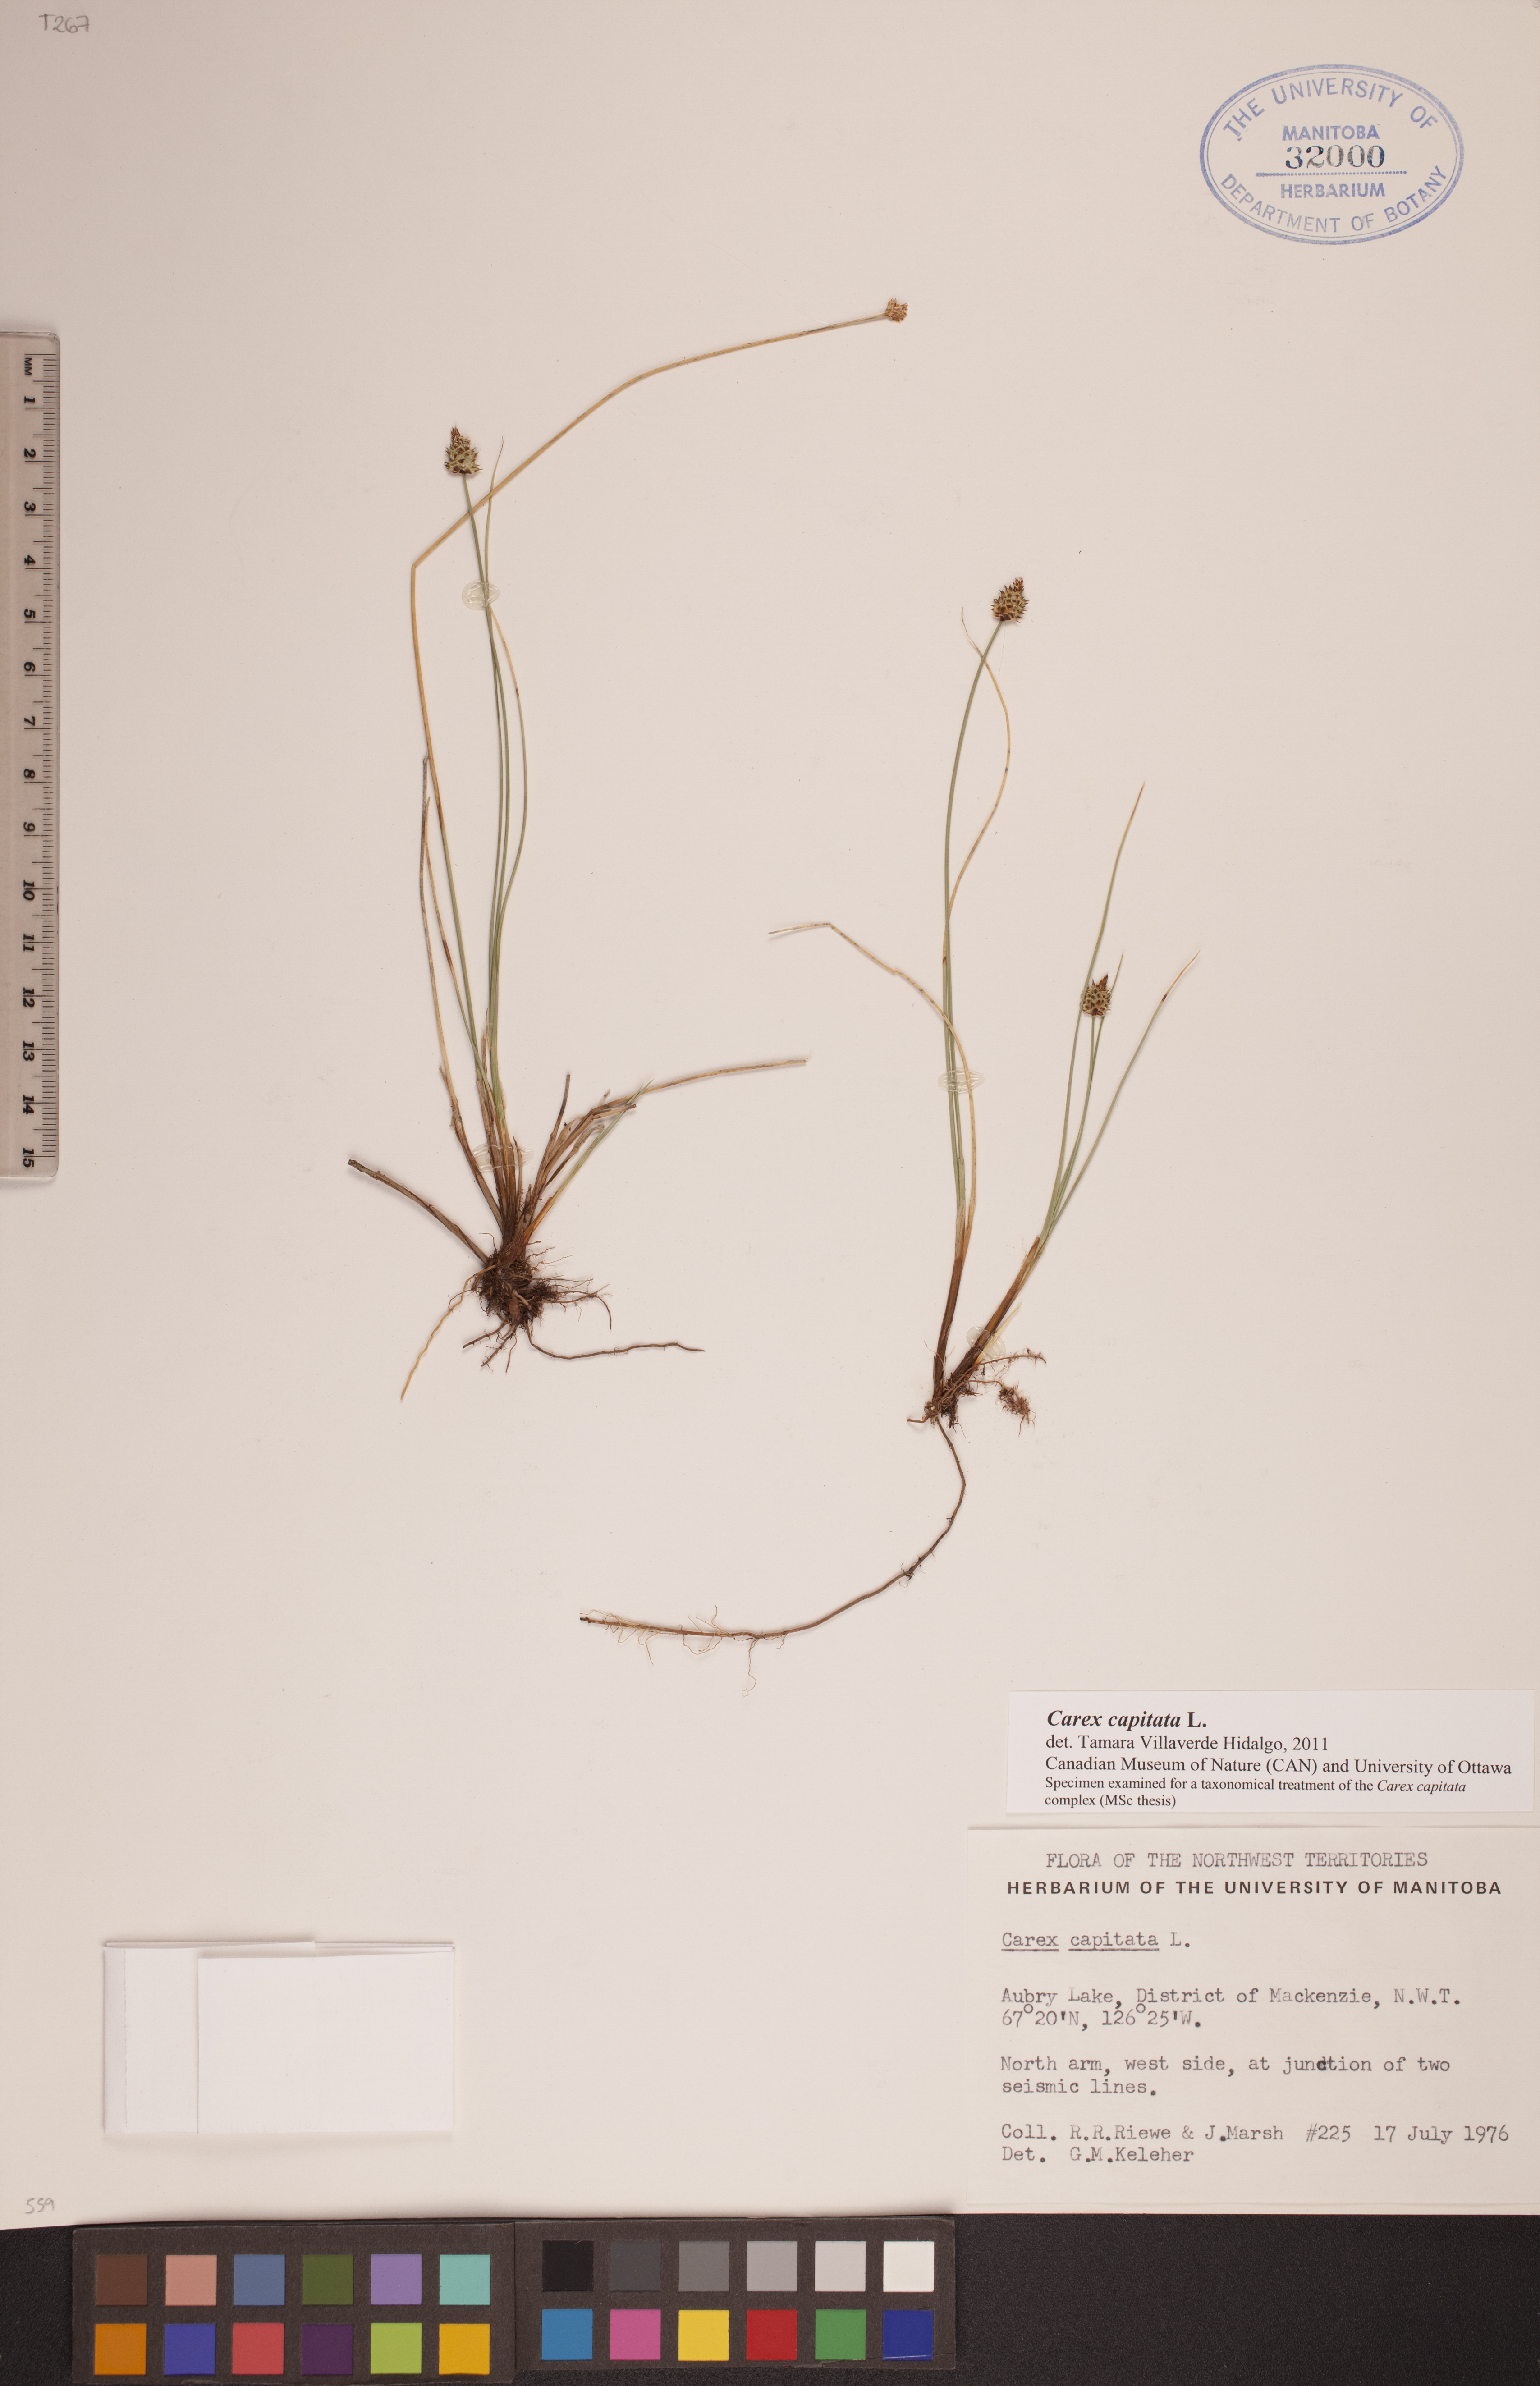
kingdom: Plantae
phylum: Tracheophyta
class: Liliopsida
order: Poales
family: Cyperaceae
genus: Carex
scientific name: Carex capitata
